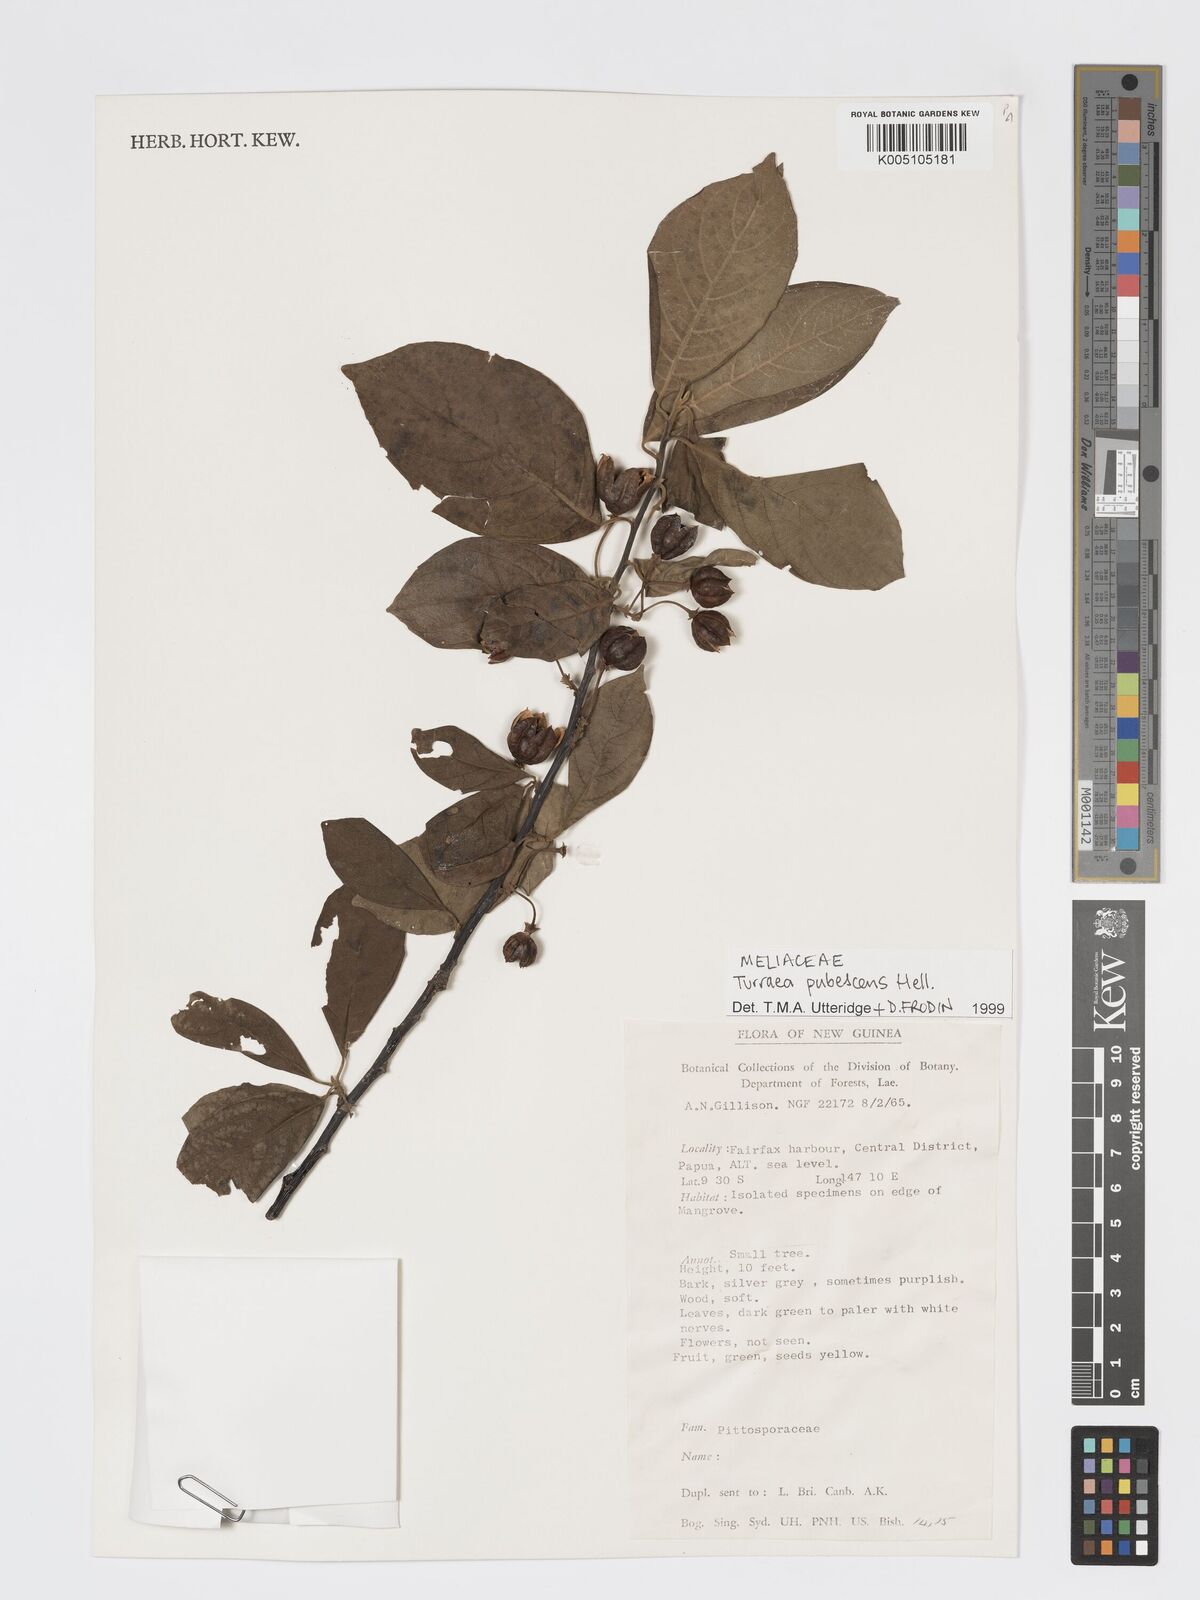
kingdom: Plantae
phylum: Tracheophyta
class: Magnoliopsida
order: Sapindales
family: Meliaceae
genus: Turraea
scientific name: Turraea
